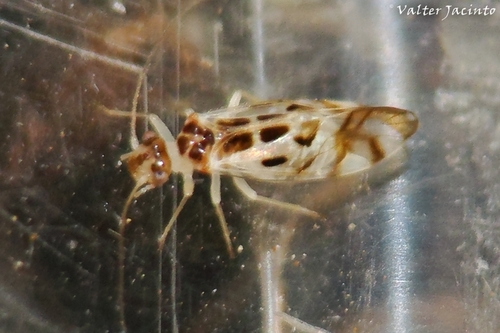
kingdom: Animalia
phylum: Arthropoda
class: Insecta
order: Psocodea
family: Stenopsocidae
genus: Graphopsocus
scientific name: Graphopsocus cruciatus
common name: Lizard bark louse
